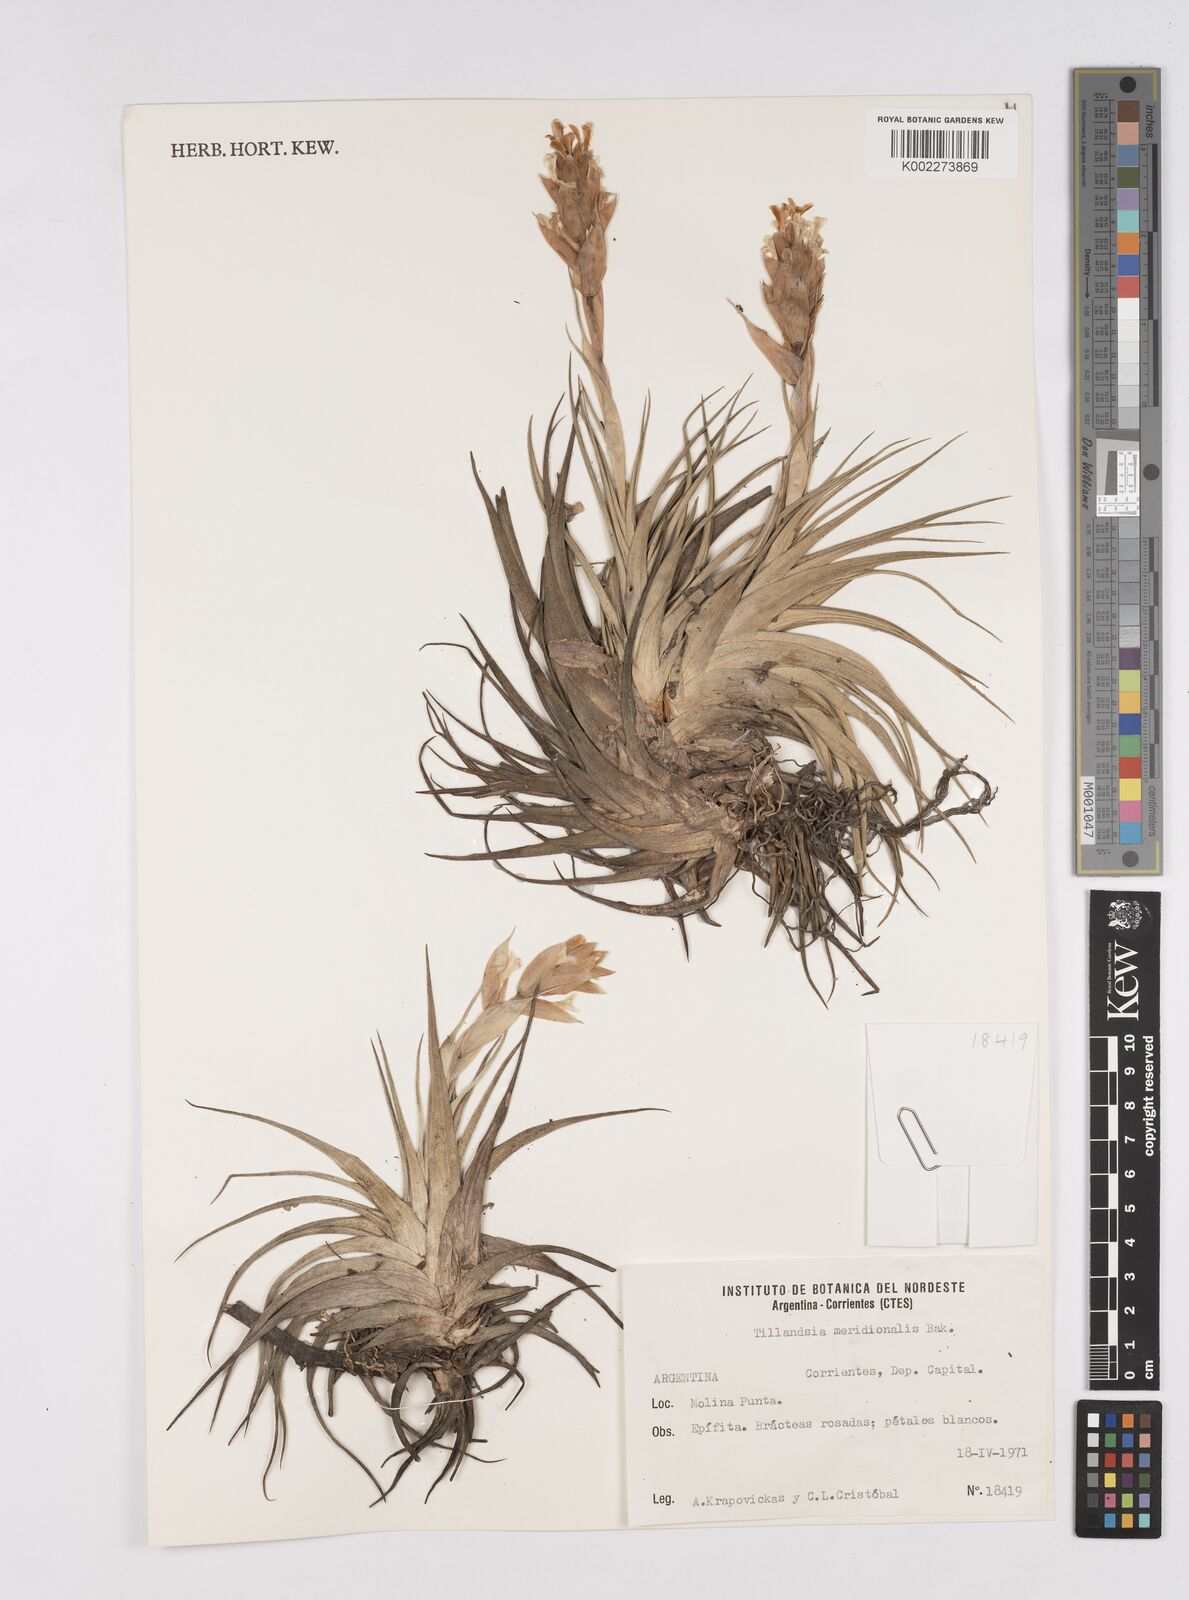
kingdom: Plantae
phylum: Tracheophyta
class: Liliopsida
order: Poales
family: Bromeliaceae
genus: Tillandsia
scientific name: Tillandsia recurvifolia
